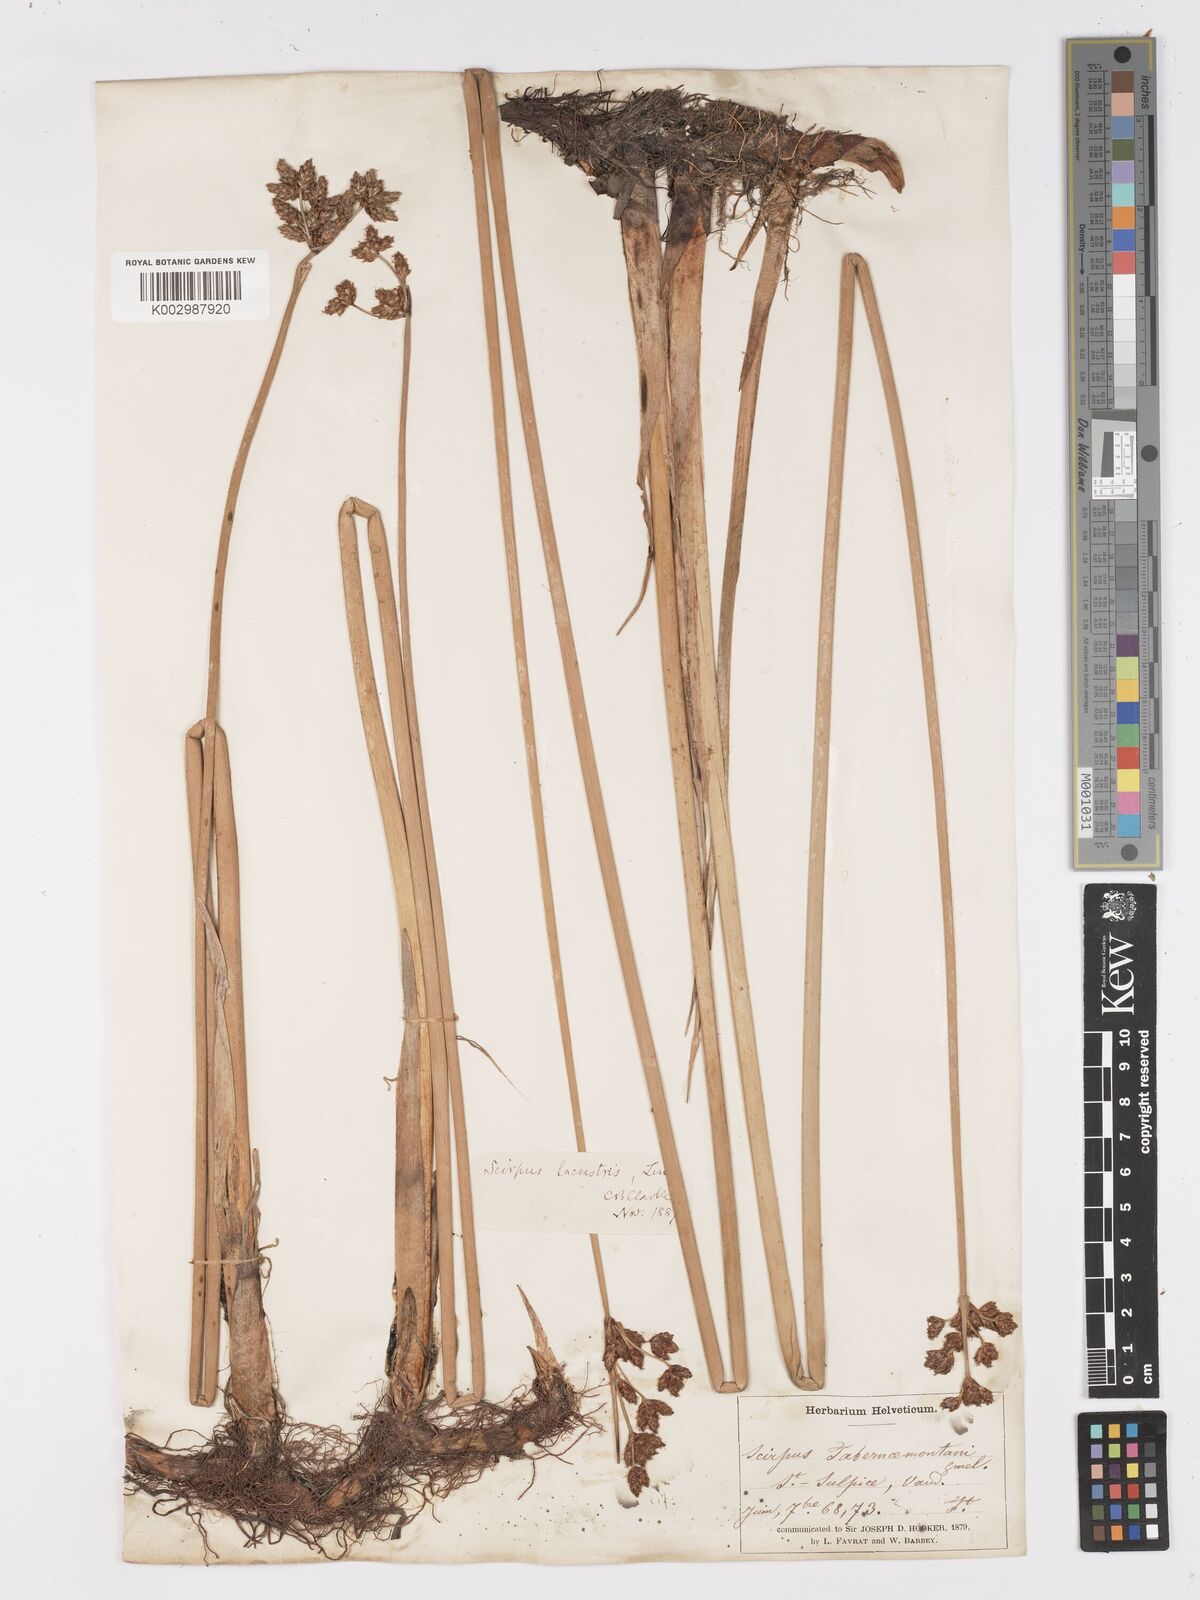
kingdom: Plantae
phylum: Tracheophyta
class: Liliopsida
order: Poales
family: Cyperaceae
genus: Schoenoplectus
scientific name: Schoenoplectus tabernaemontani
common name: Grey club-rush
